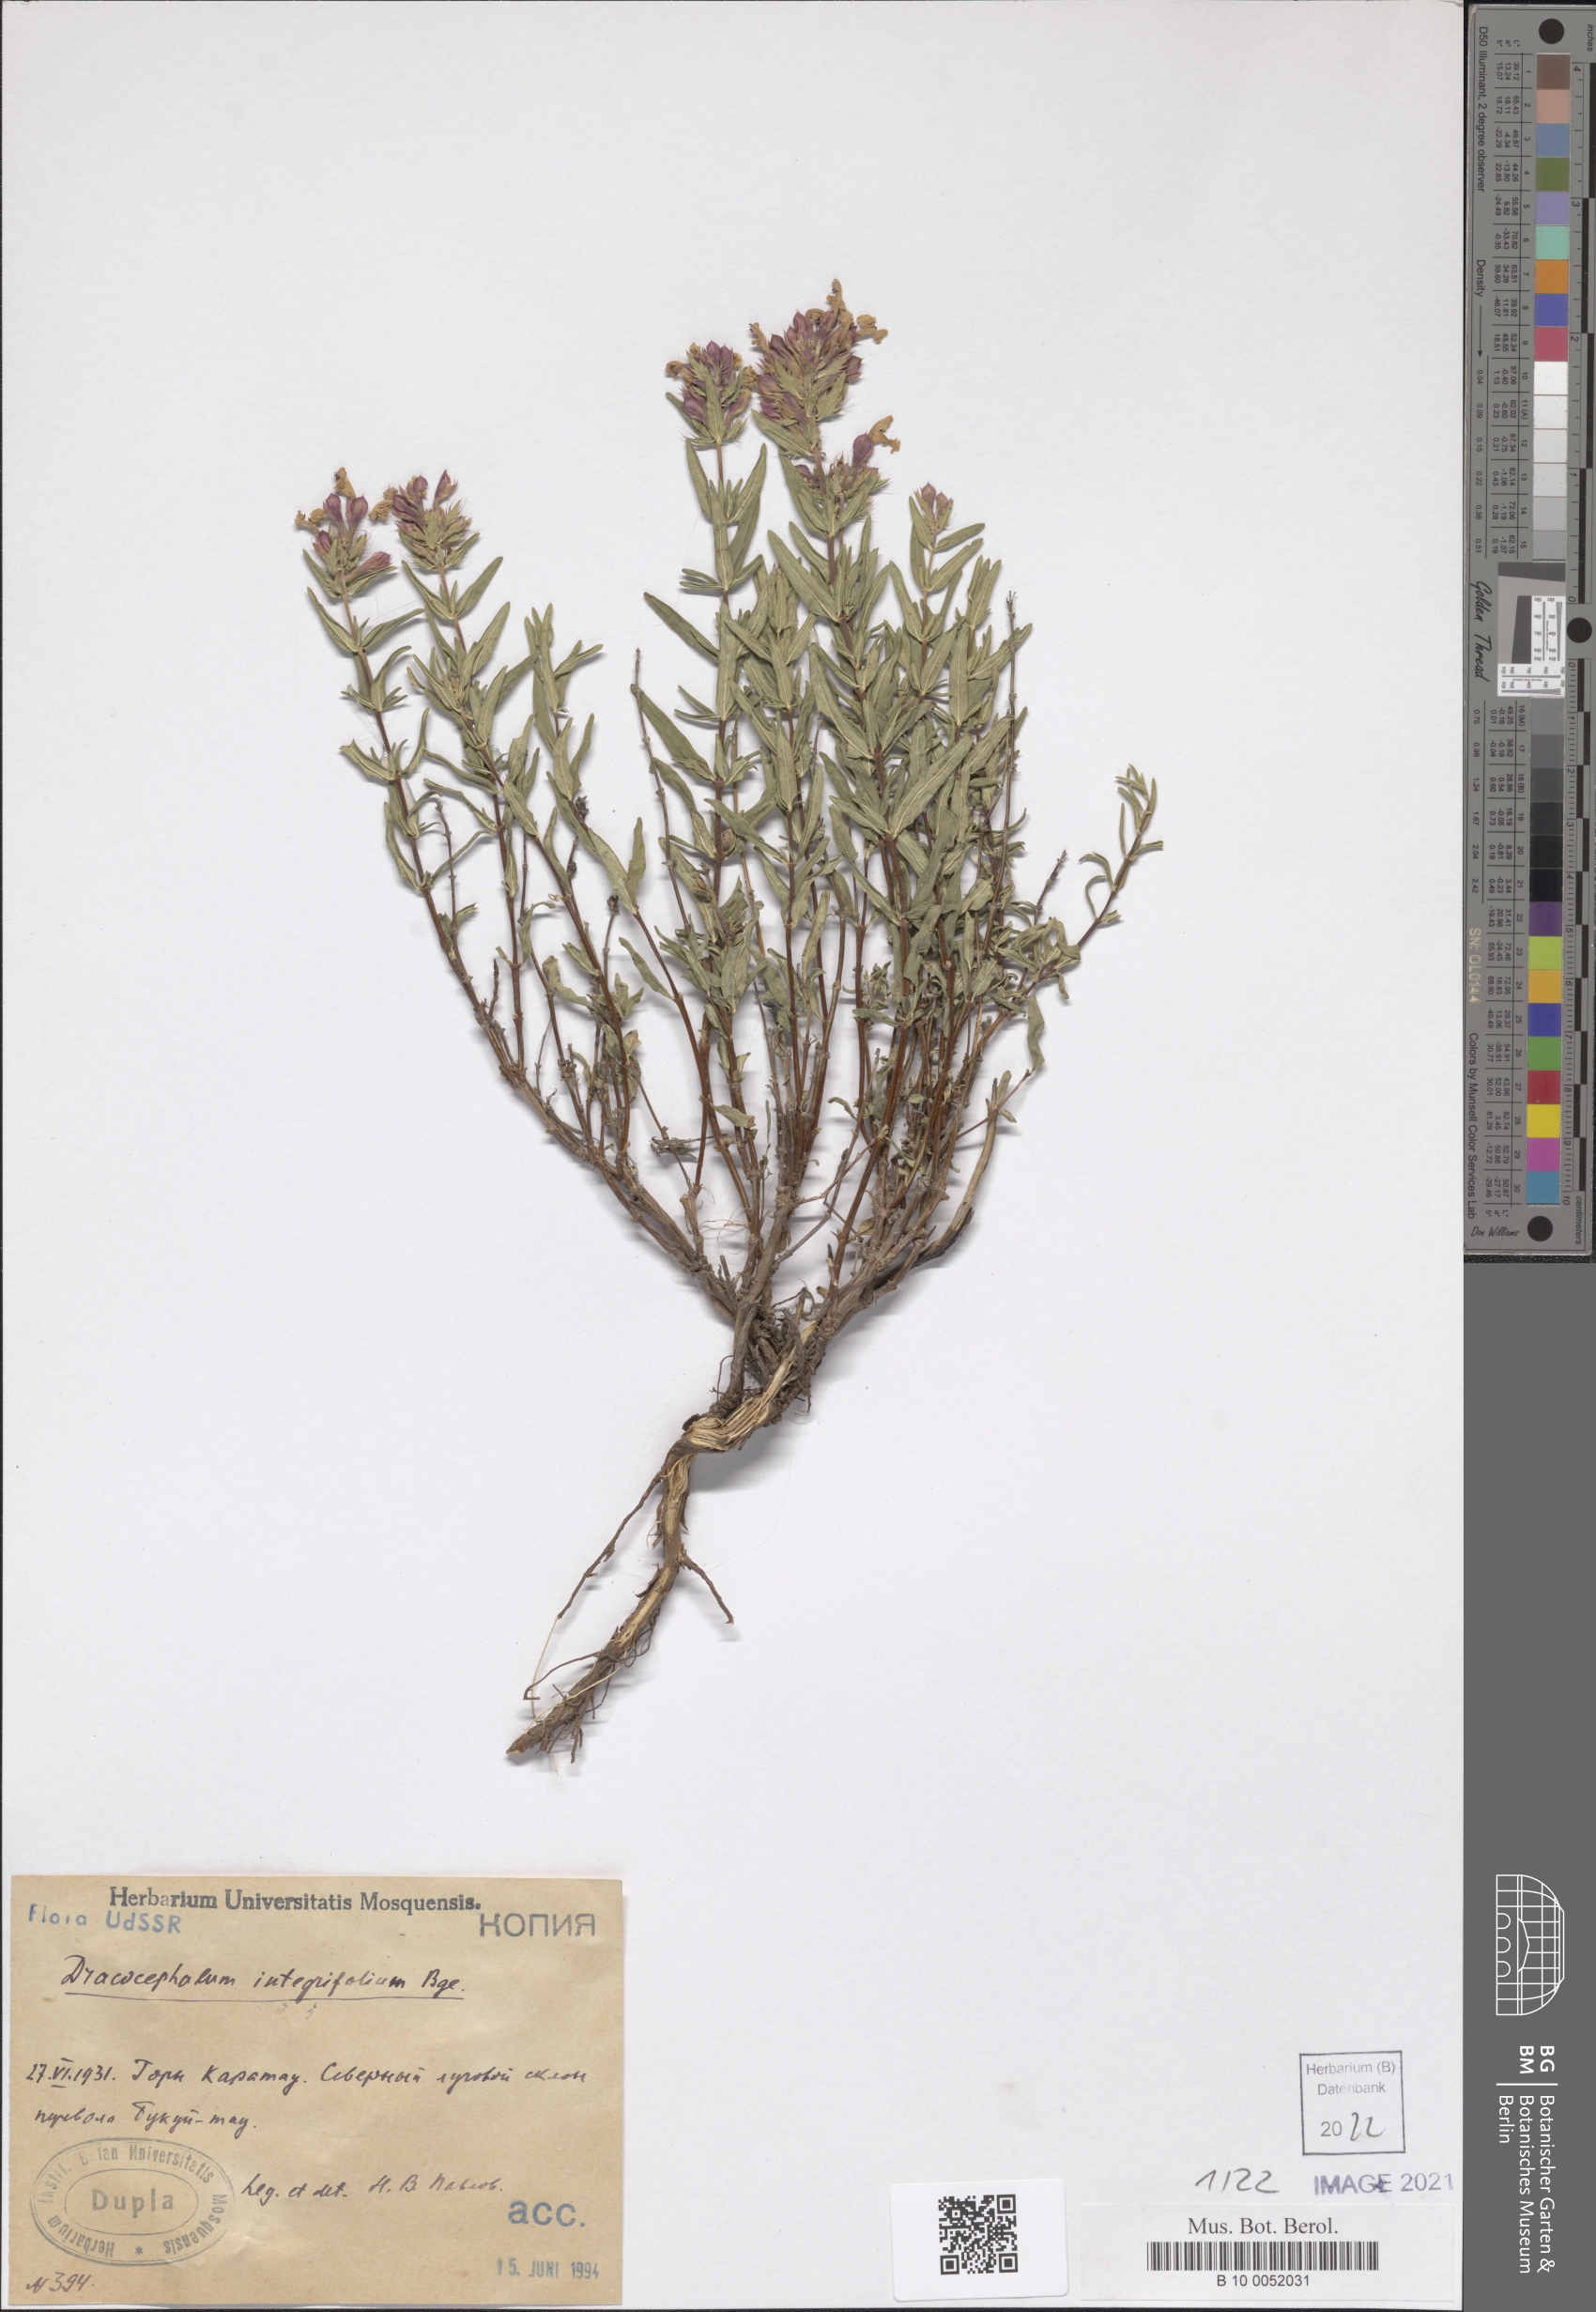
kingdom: Plantae
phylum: Tracheophyta
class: Magnoliopsida
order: Lamiales
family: Lamiaceae
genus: Dracocephalum
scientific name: Dracocephalum integrifolium
